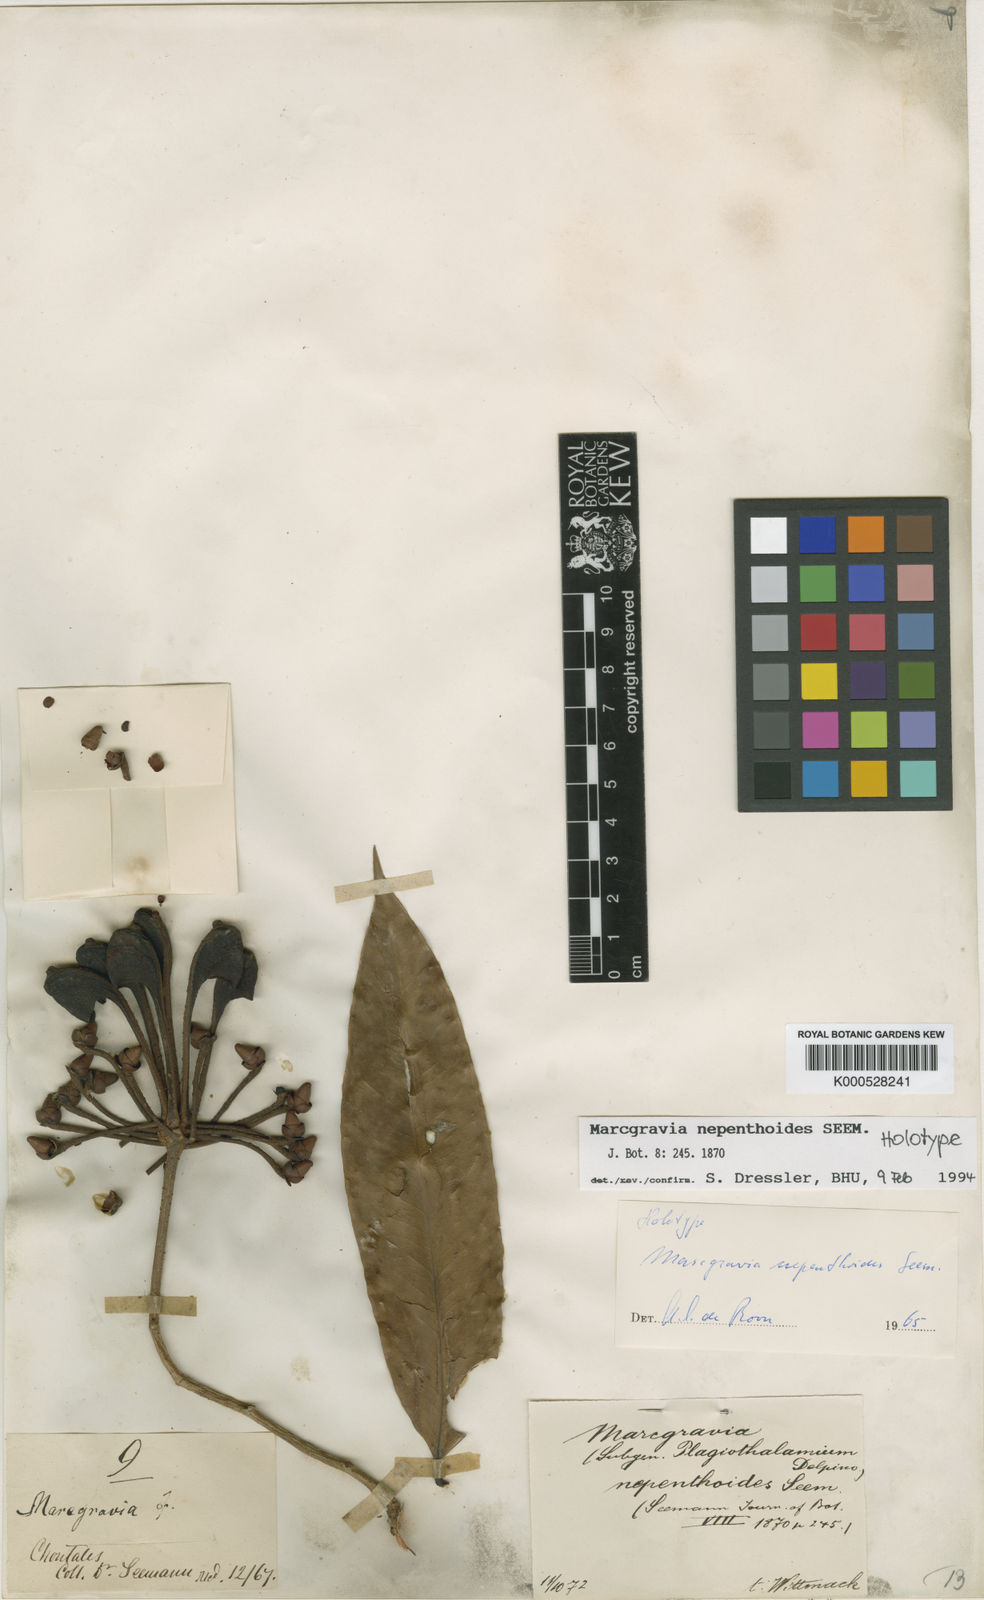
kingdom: Plantae
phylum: Tracheophyta
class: Magnoliopsida
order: Ericales
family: Marcgraviaceae
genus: Marcgravia
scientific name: Marcgravia nepenthoides
